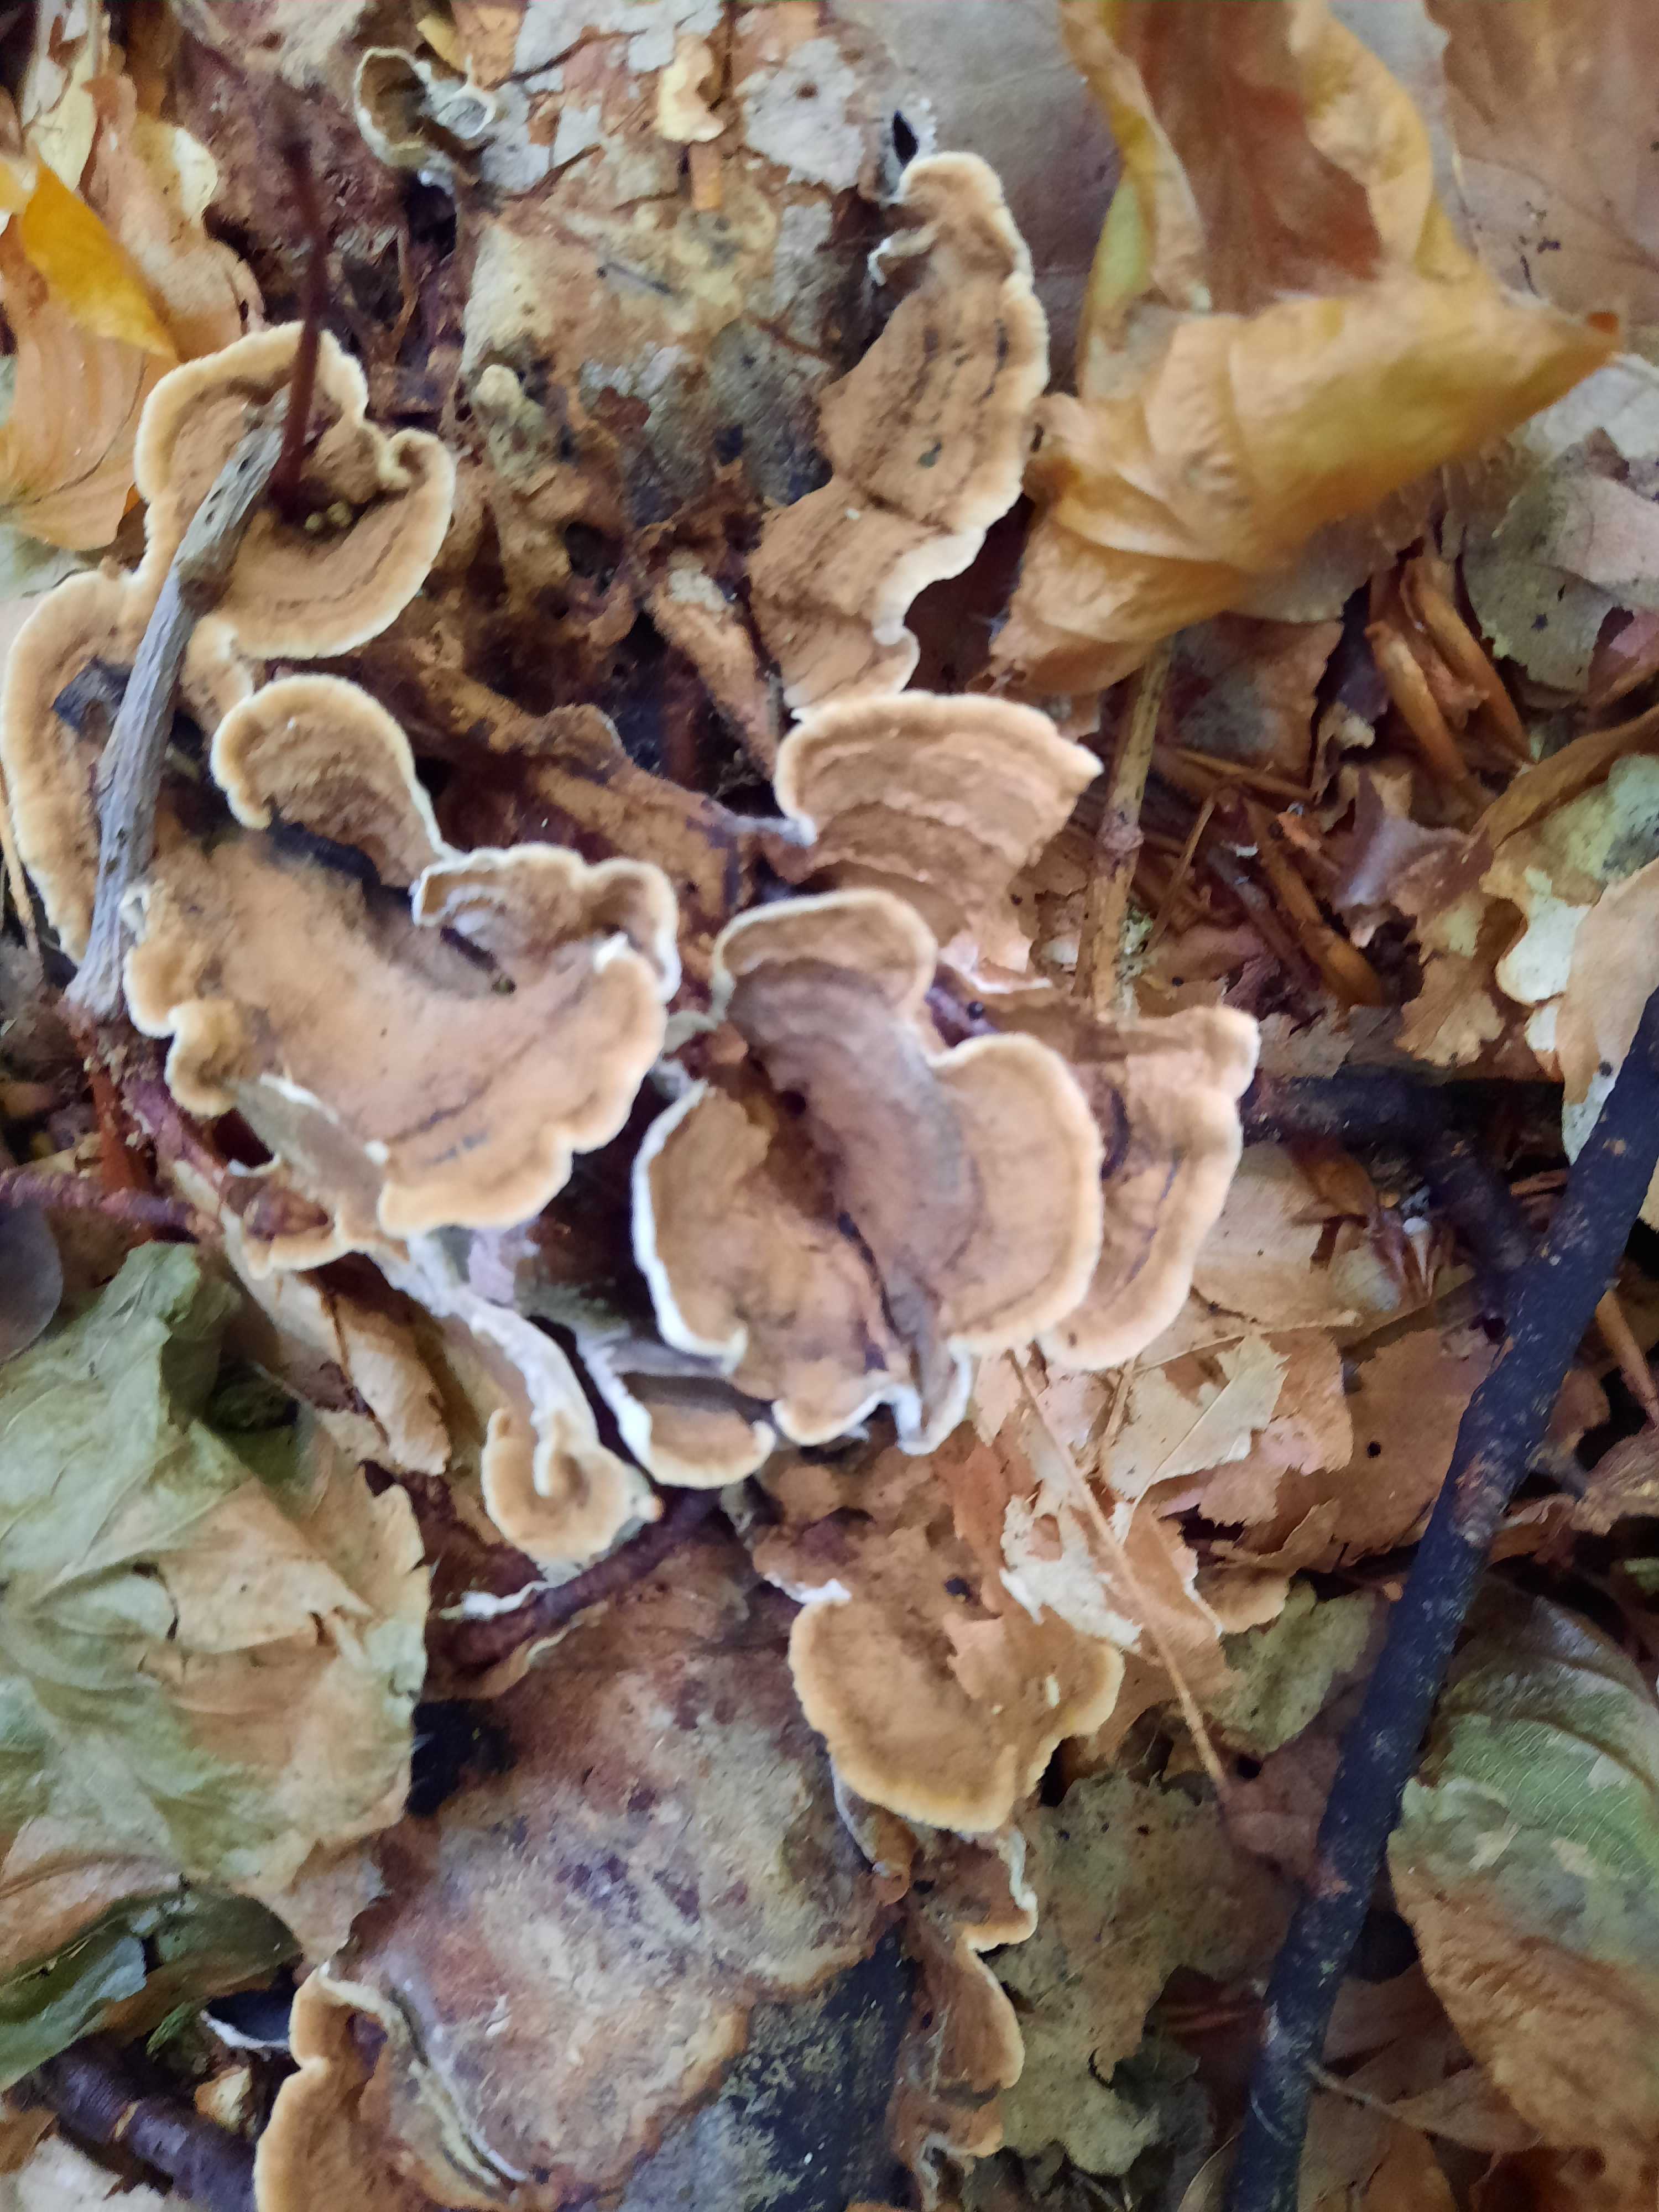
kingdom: Fungi
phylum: Basidiomycota
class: Agaricomycetes
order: Polyporales
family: Polyporaceae
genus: Trametes
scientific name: Trametes versicolor
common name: broget læderporesvamp
